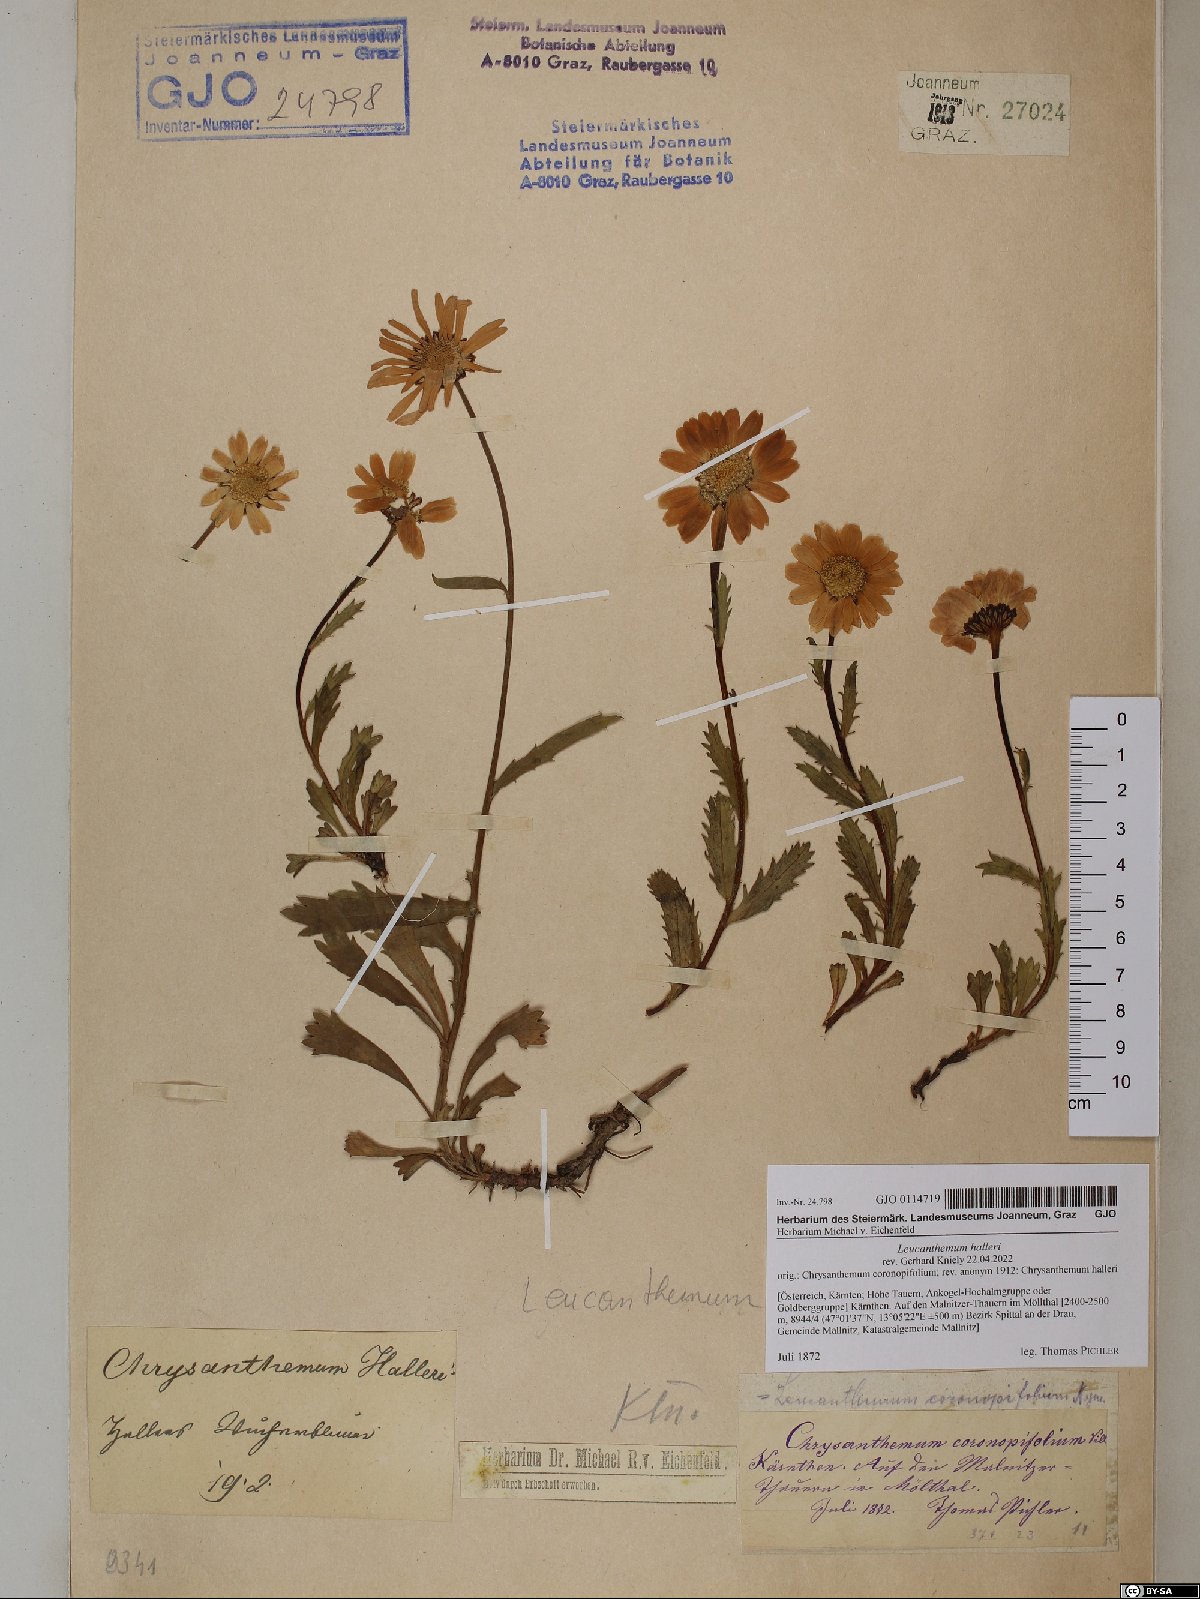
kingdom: Plantae
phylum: Tracheophyta
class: Magnoliopsida
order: Asterales
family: Asteraceae
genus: Leucanthemum
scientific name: Leucanthemum halleri
